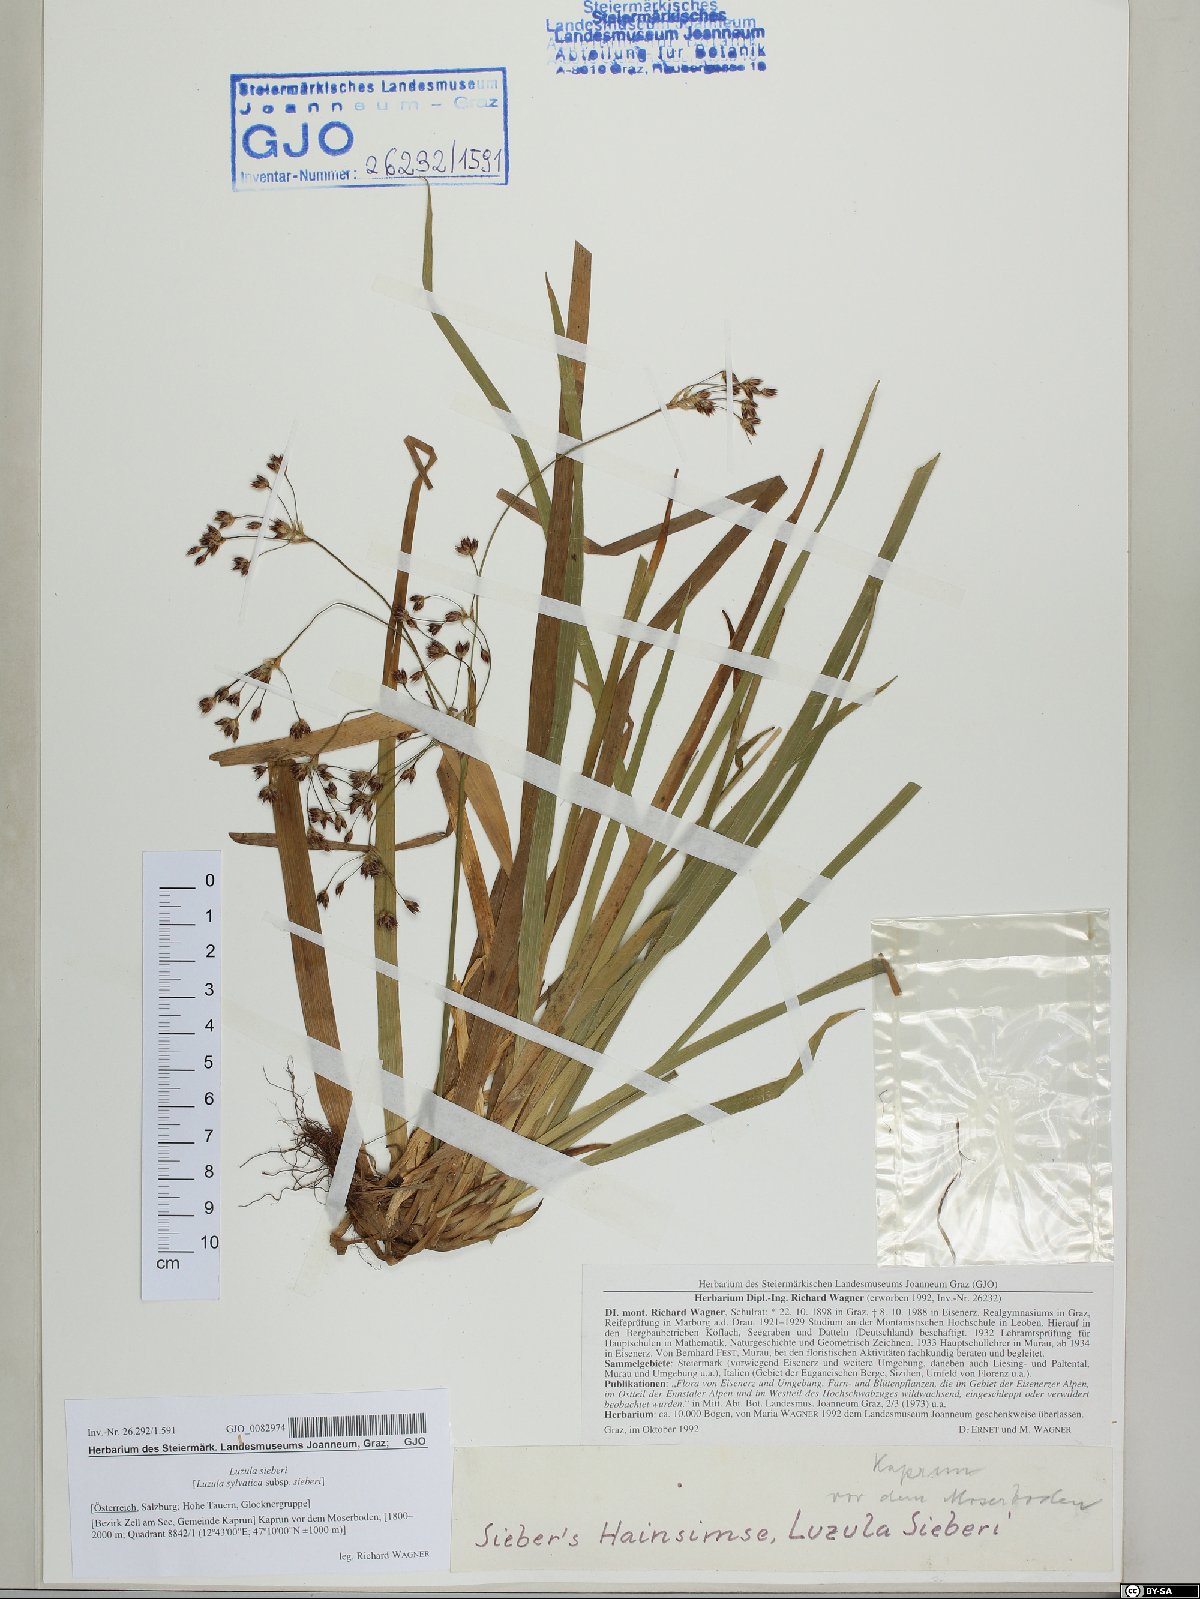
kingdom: Plantae
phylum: Tracheophyta
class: Liliopsida
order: Poales
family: Juncaceae
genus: Luzula
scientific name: Luzula sylvatica
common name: Great wood-rush
